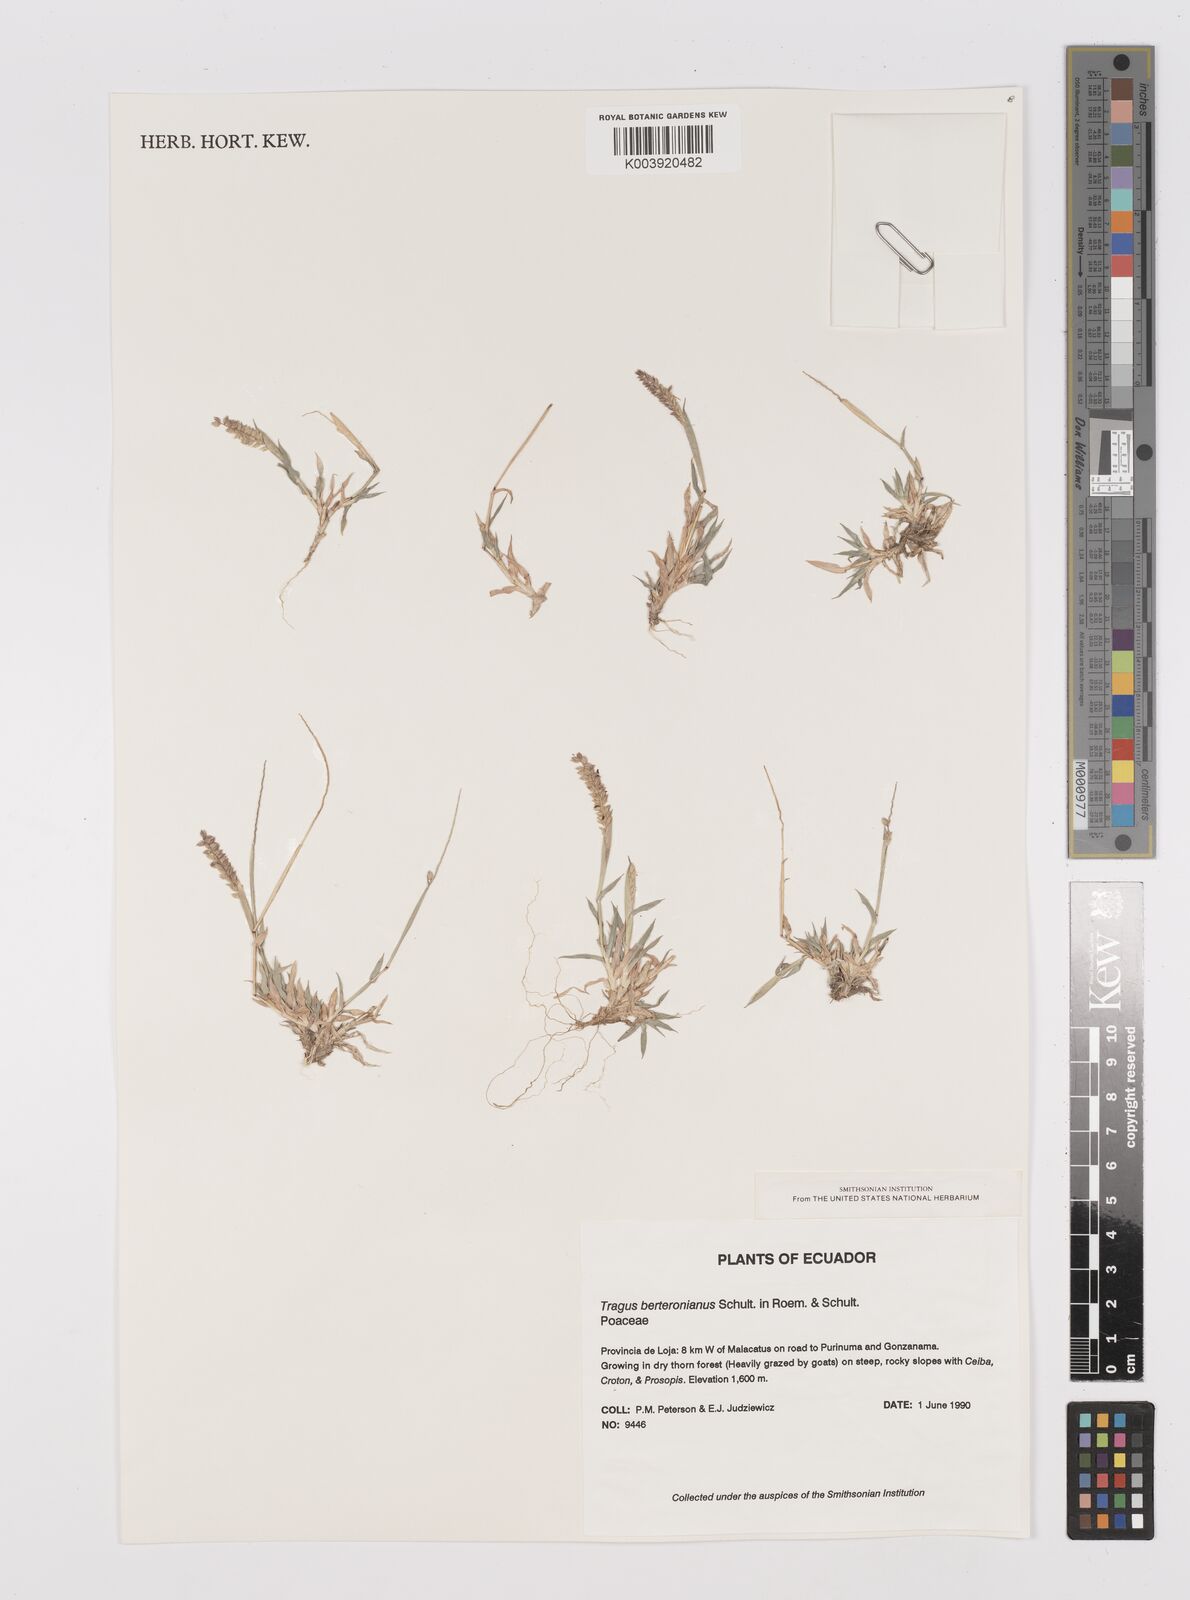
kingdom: Plantae
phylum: Tracheophyta
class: Liliopsida
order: Poales
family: Poaceae
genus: Tragus
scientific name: Tragus berteronianus
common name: African bur-grass
